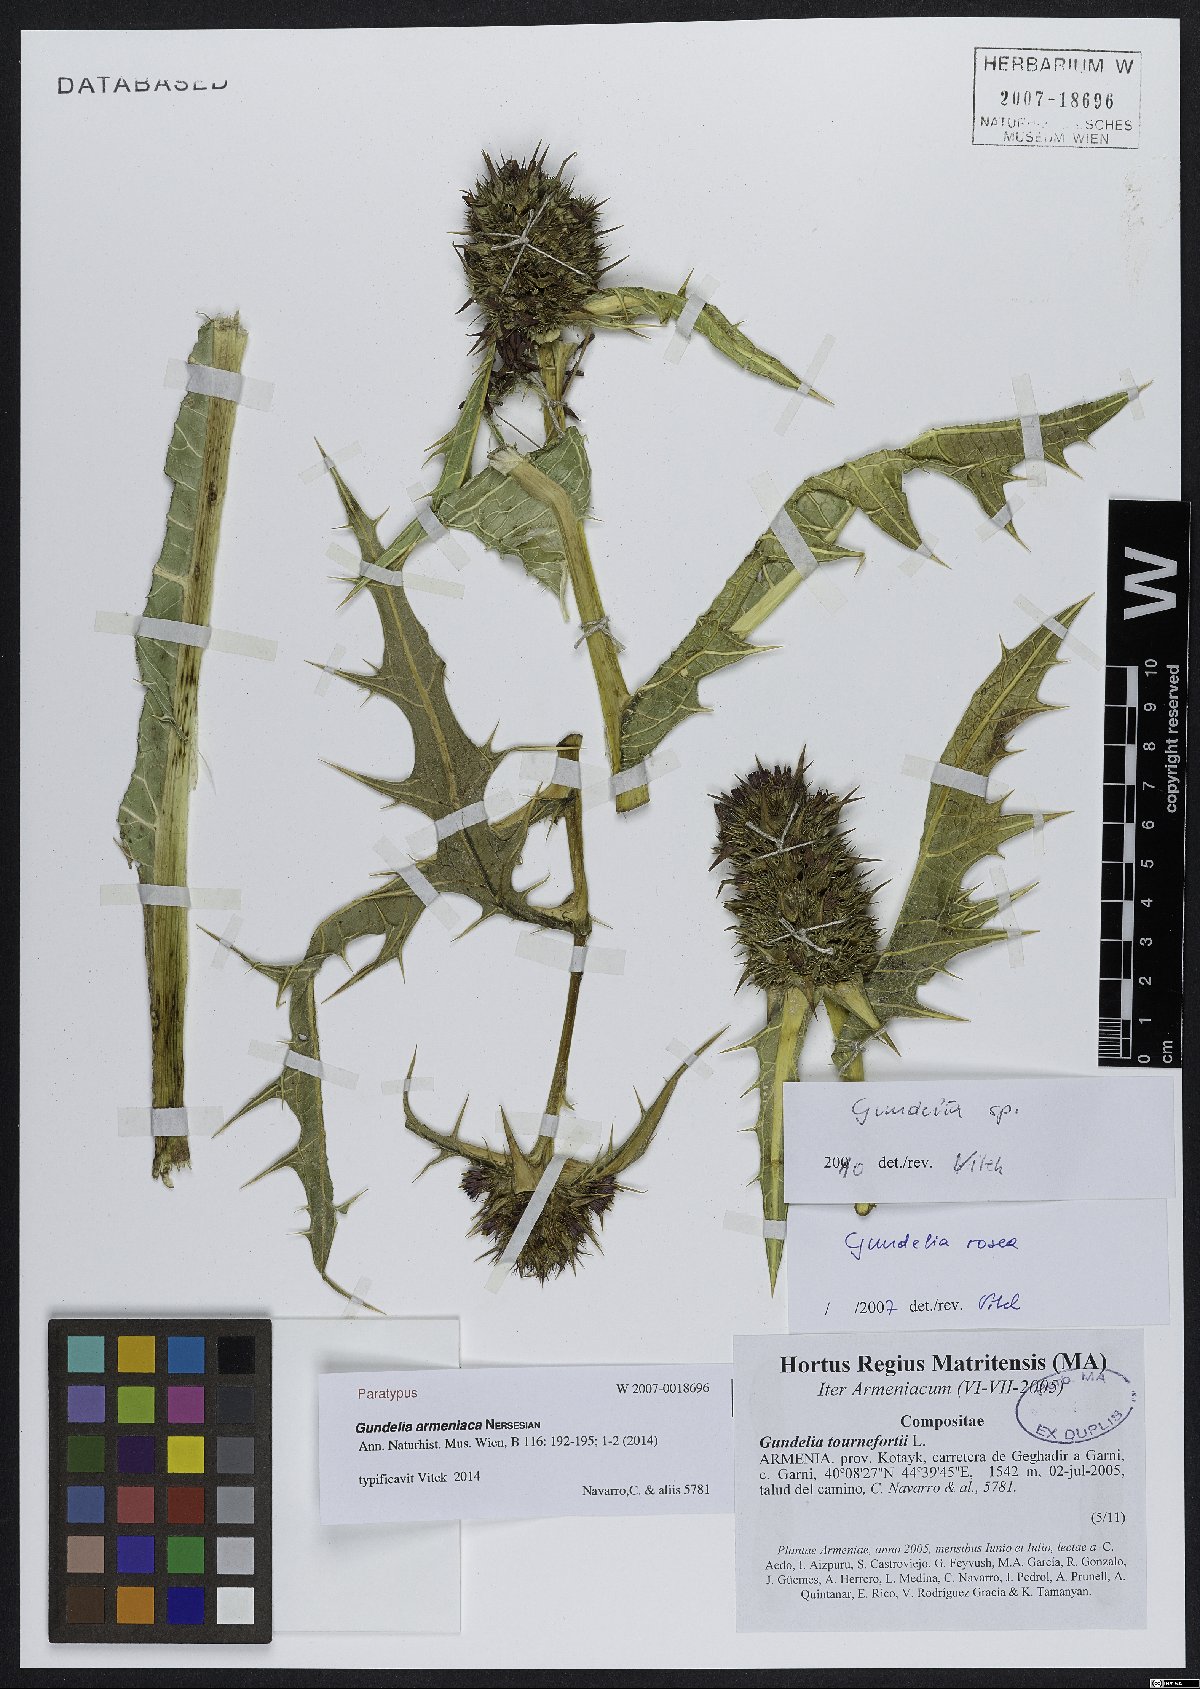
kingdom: Plantae
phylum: Tracheophyta
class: Magnoliopsida
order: Asterales
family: Asteraceae
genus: Gundelia
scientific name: Gundelia armeniaca
